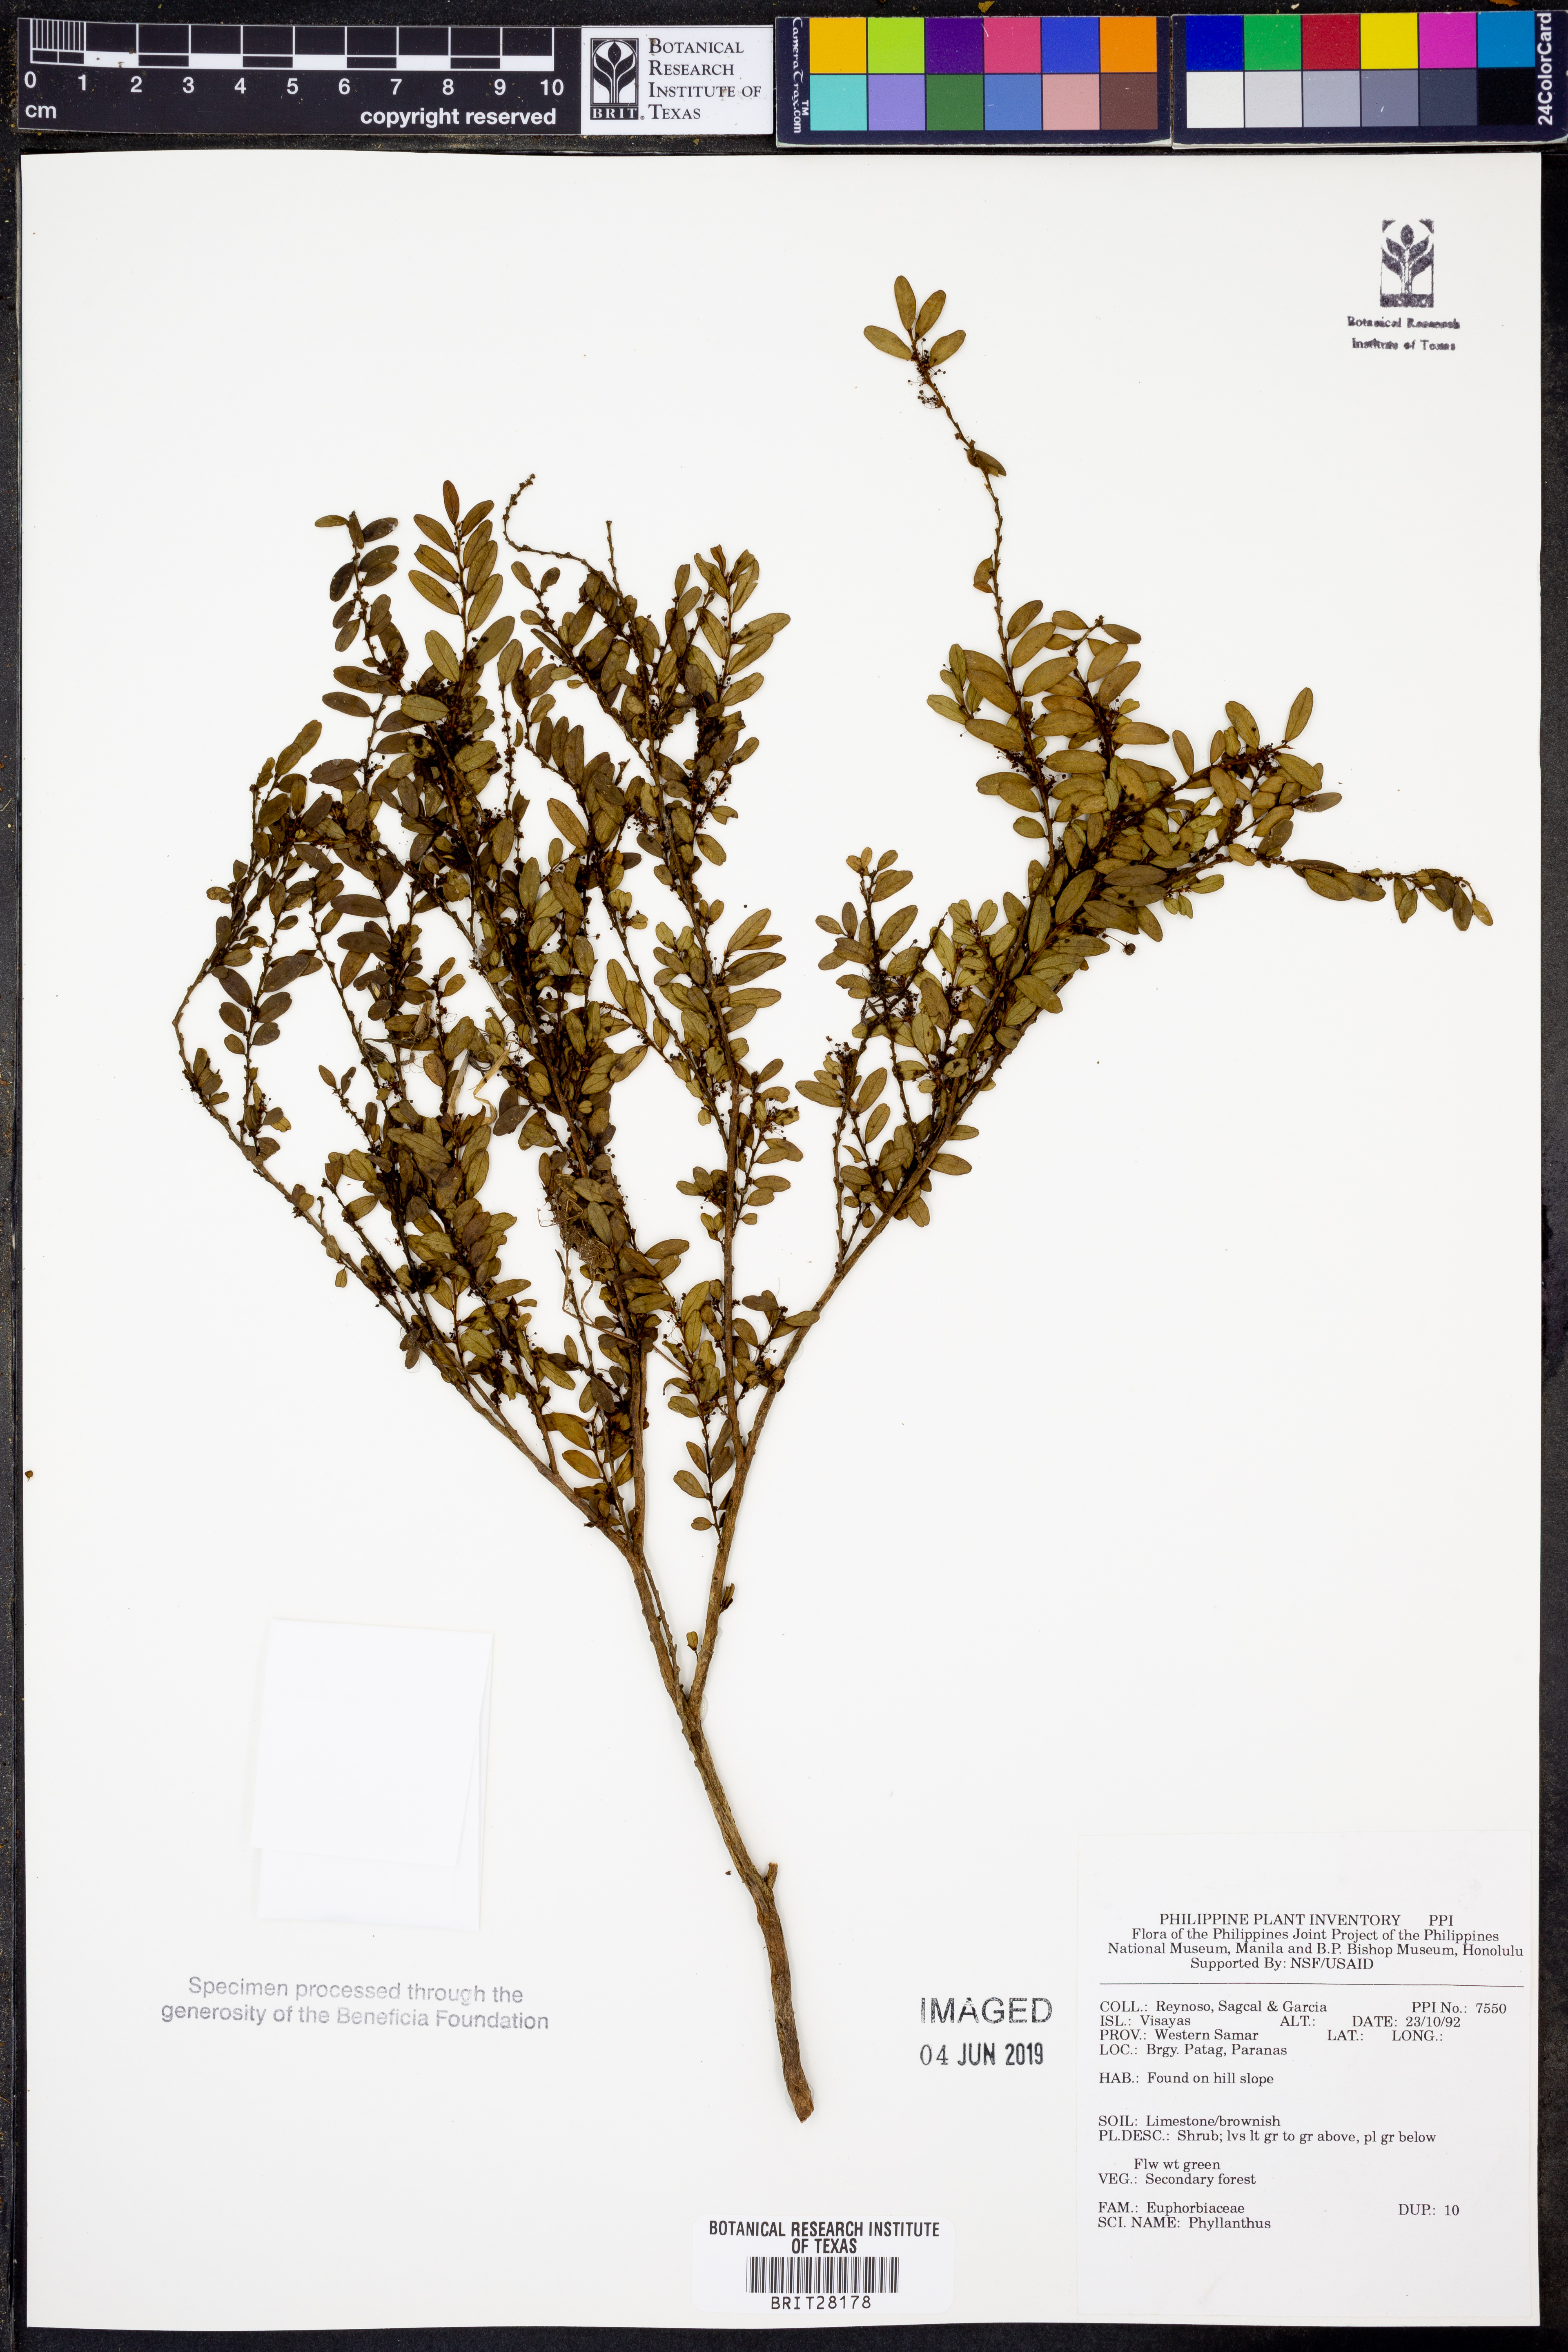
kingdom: Plantae
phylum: Tracheophyta
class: Magnoliopsida
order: Malpighiales
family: Phyllanthaceae
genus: Phyllanthus
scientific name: Phyllanthus
